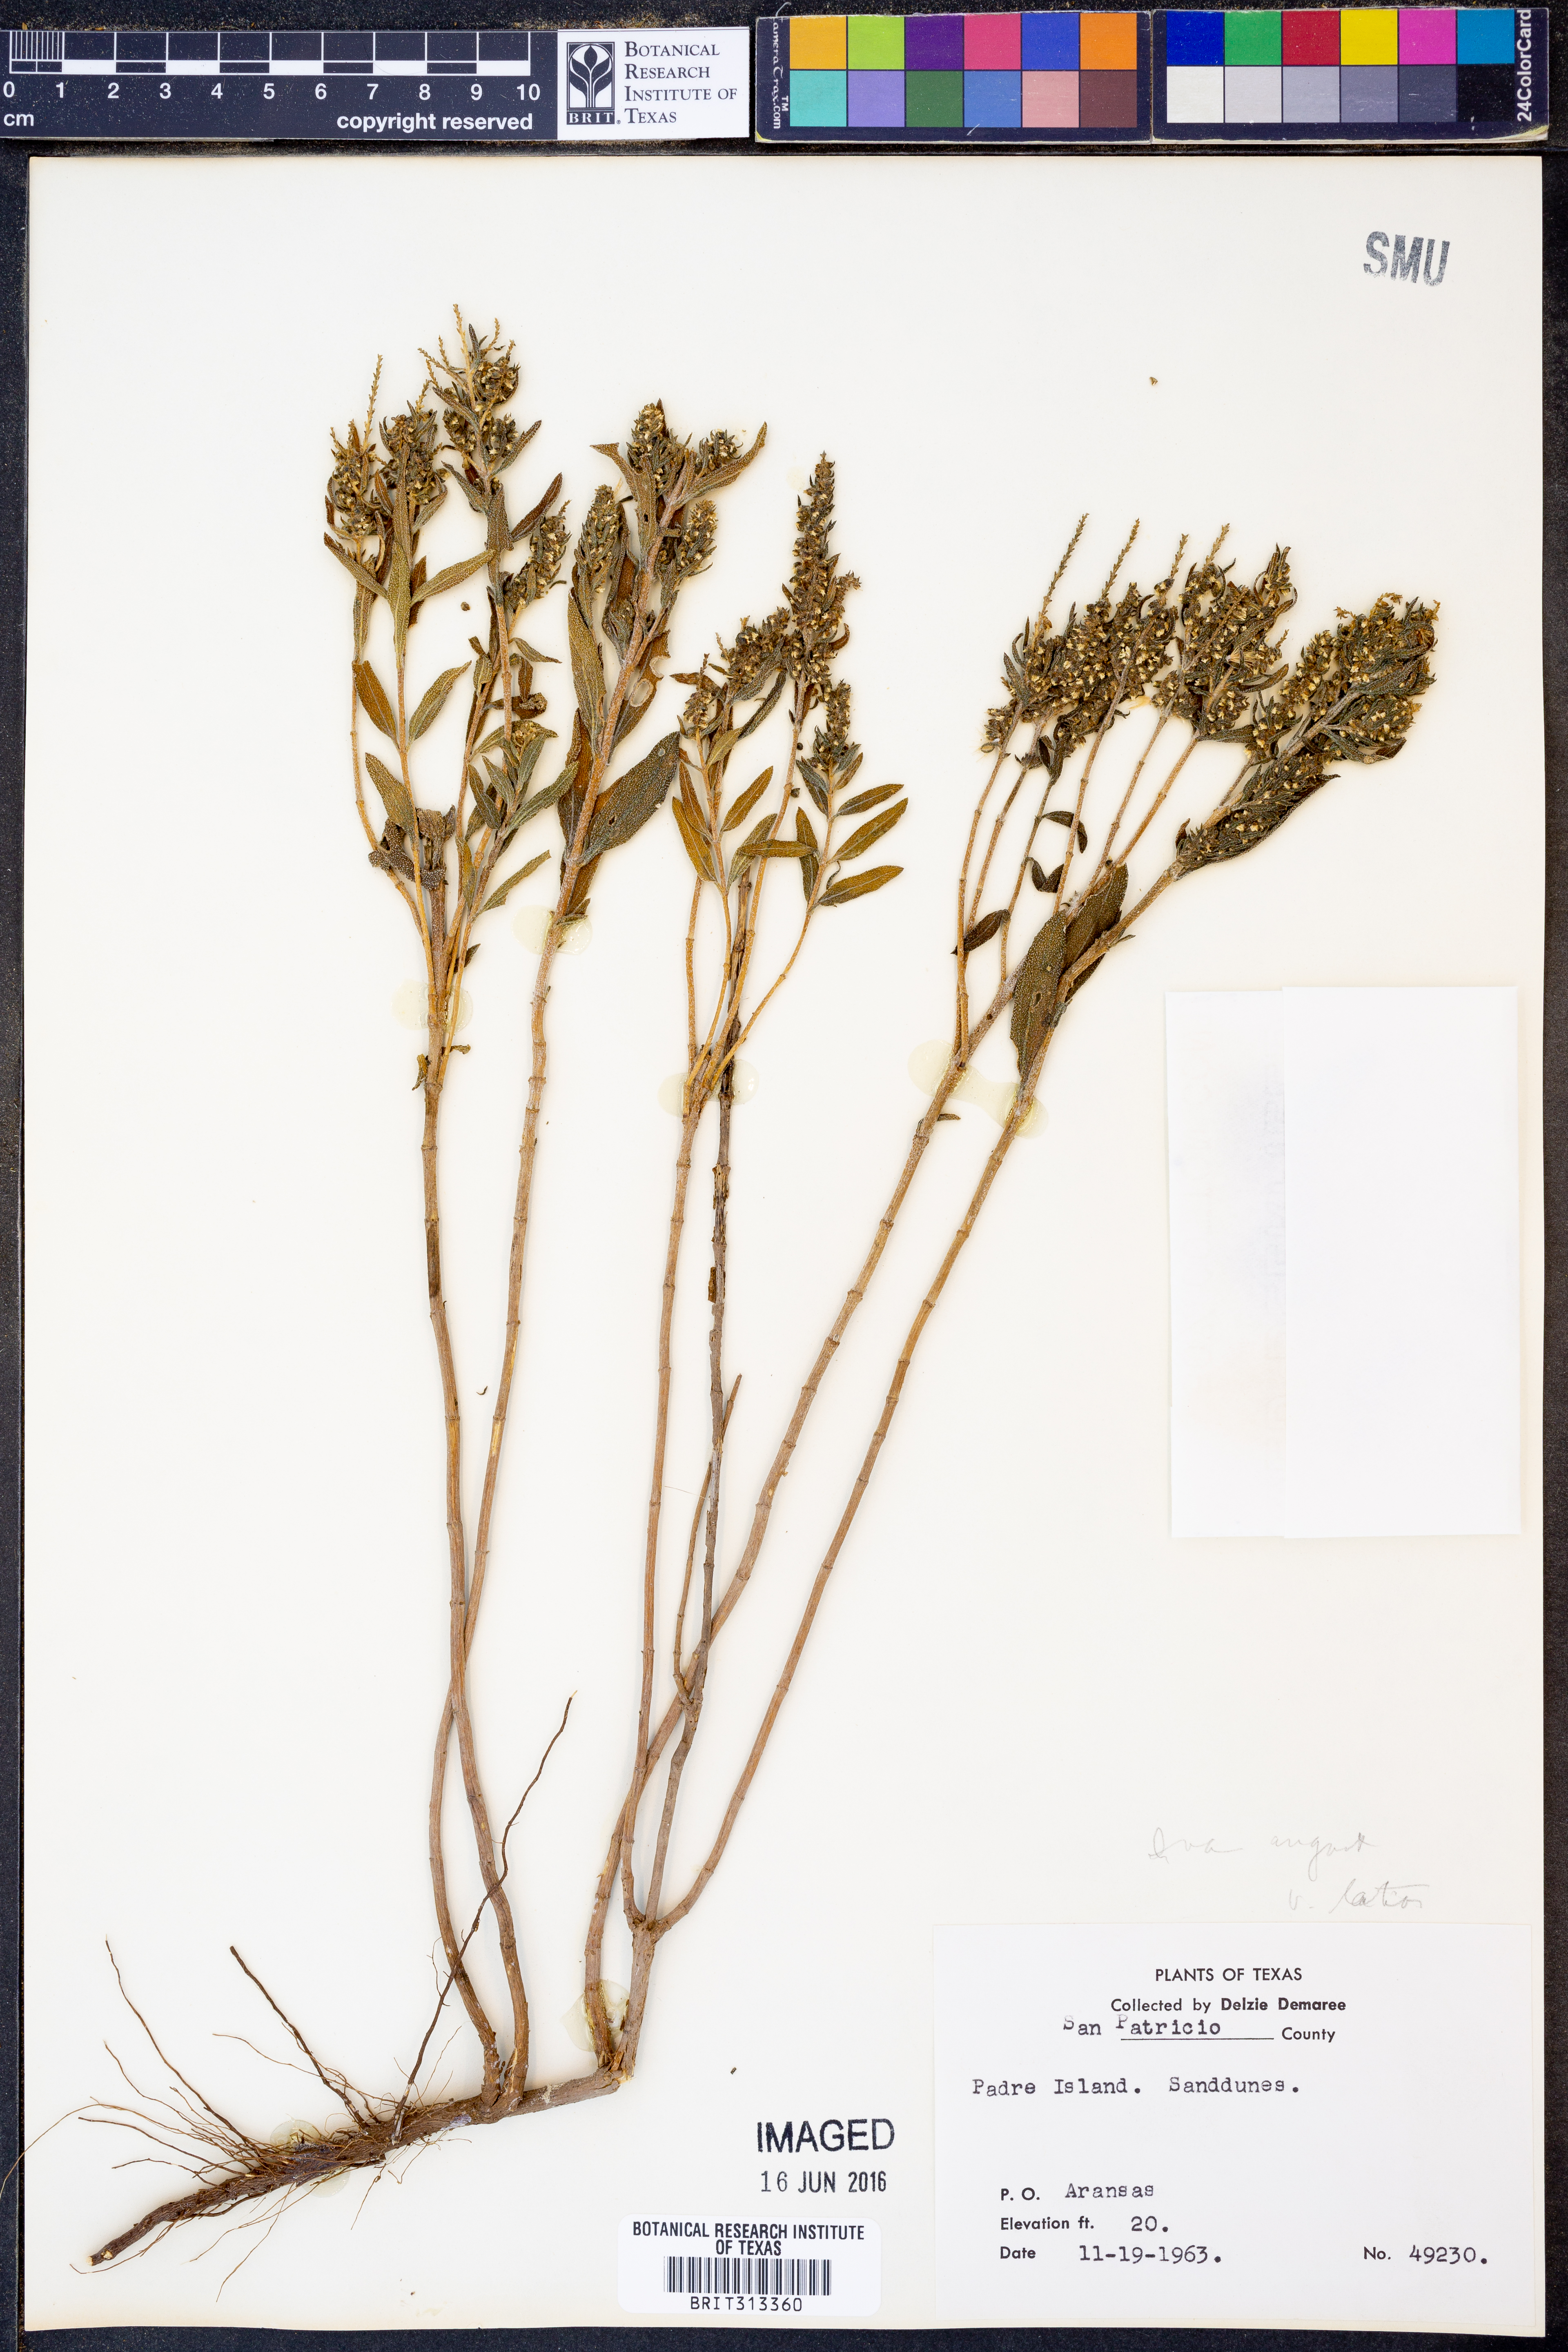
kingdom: Plantae
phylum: Tracheophyta
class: Magnoliopsida
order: Asterales
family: Asteraceae
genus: Iva
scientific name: Iva texensis
